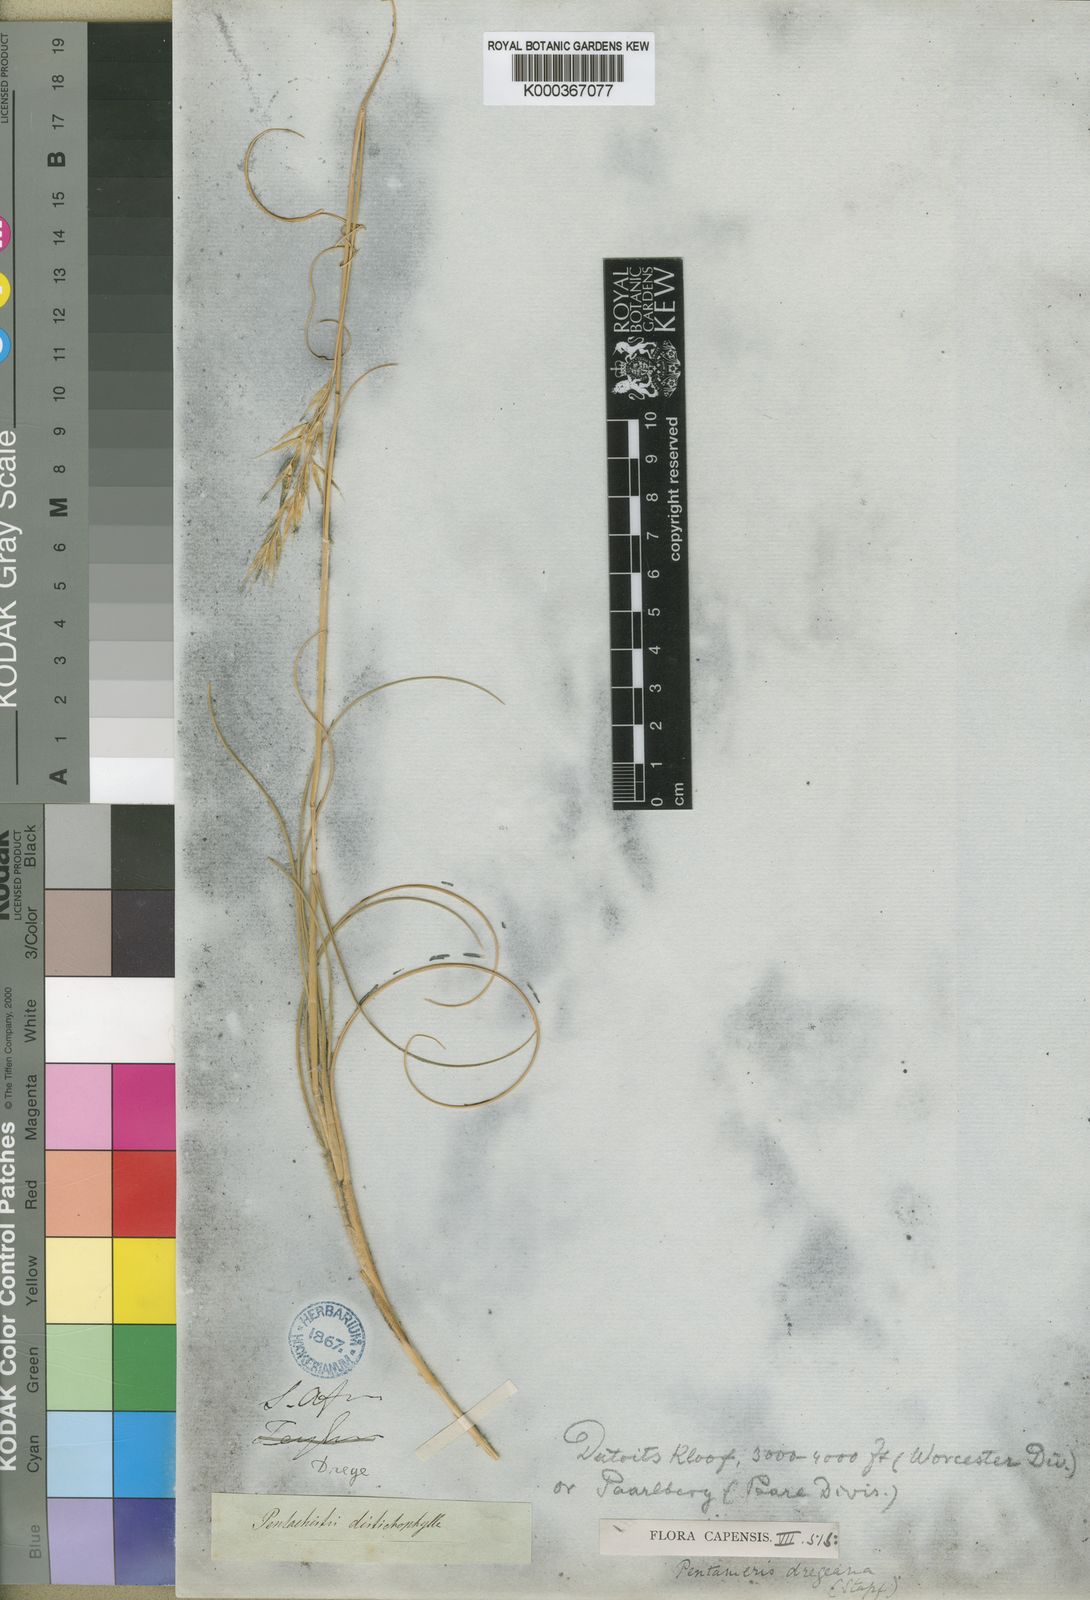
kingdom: Plantae
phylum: Tracheophyta
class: Liliopsida
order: Poales
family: Poaceae
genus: Pentameris
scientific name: Pentameris dregeana
